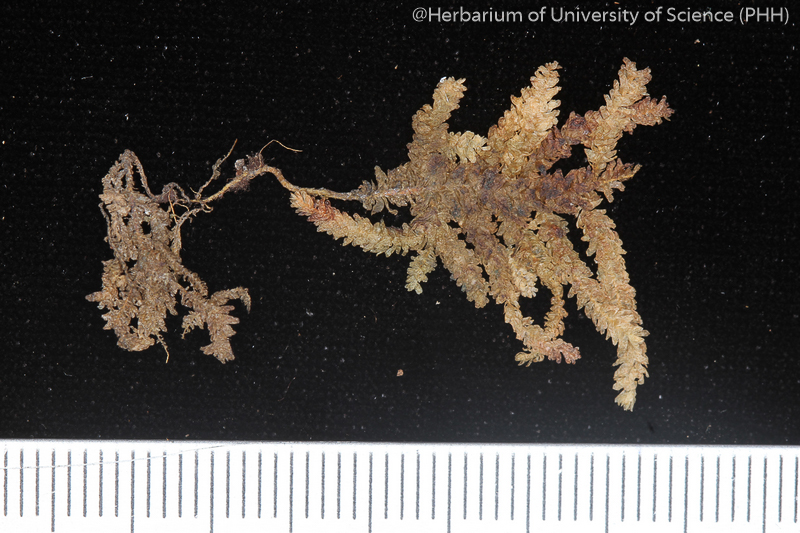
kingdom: Plantae
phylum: Bryophyta
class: Bryopsida
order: Hypnales
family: Neckeraceae
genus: Himantocladium
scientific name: Himantocladium plumula
